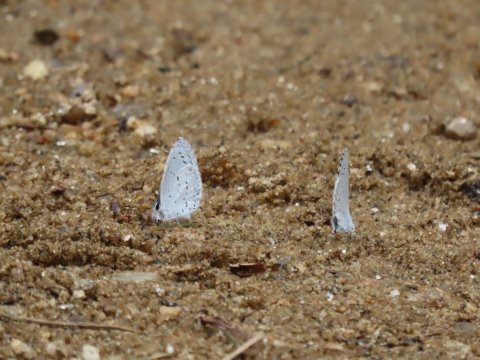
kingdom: Animalia
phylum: Arthropoda
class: Insecta
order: Lepidoptera
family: Lycaenidae
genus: Cyaniris
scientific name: Cyaniris neglecta
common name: Summer Azure
